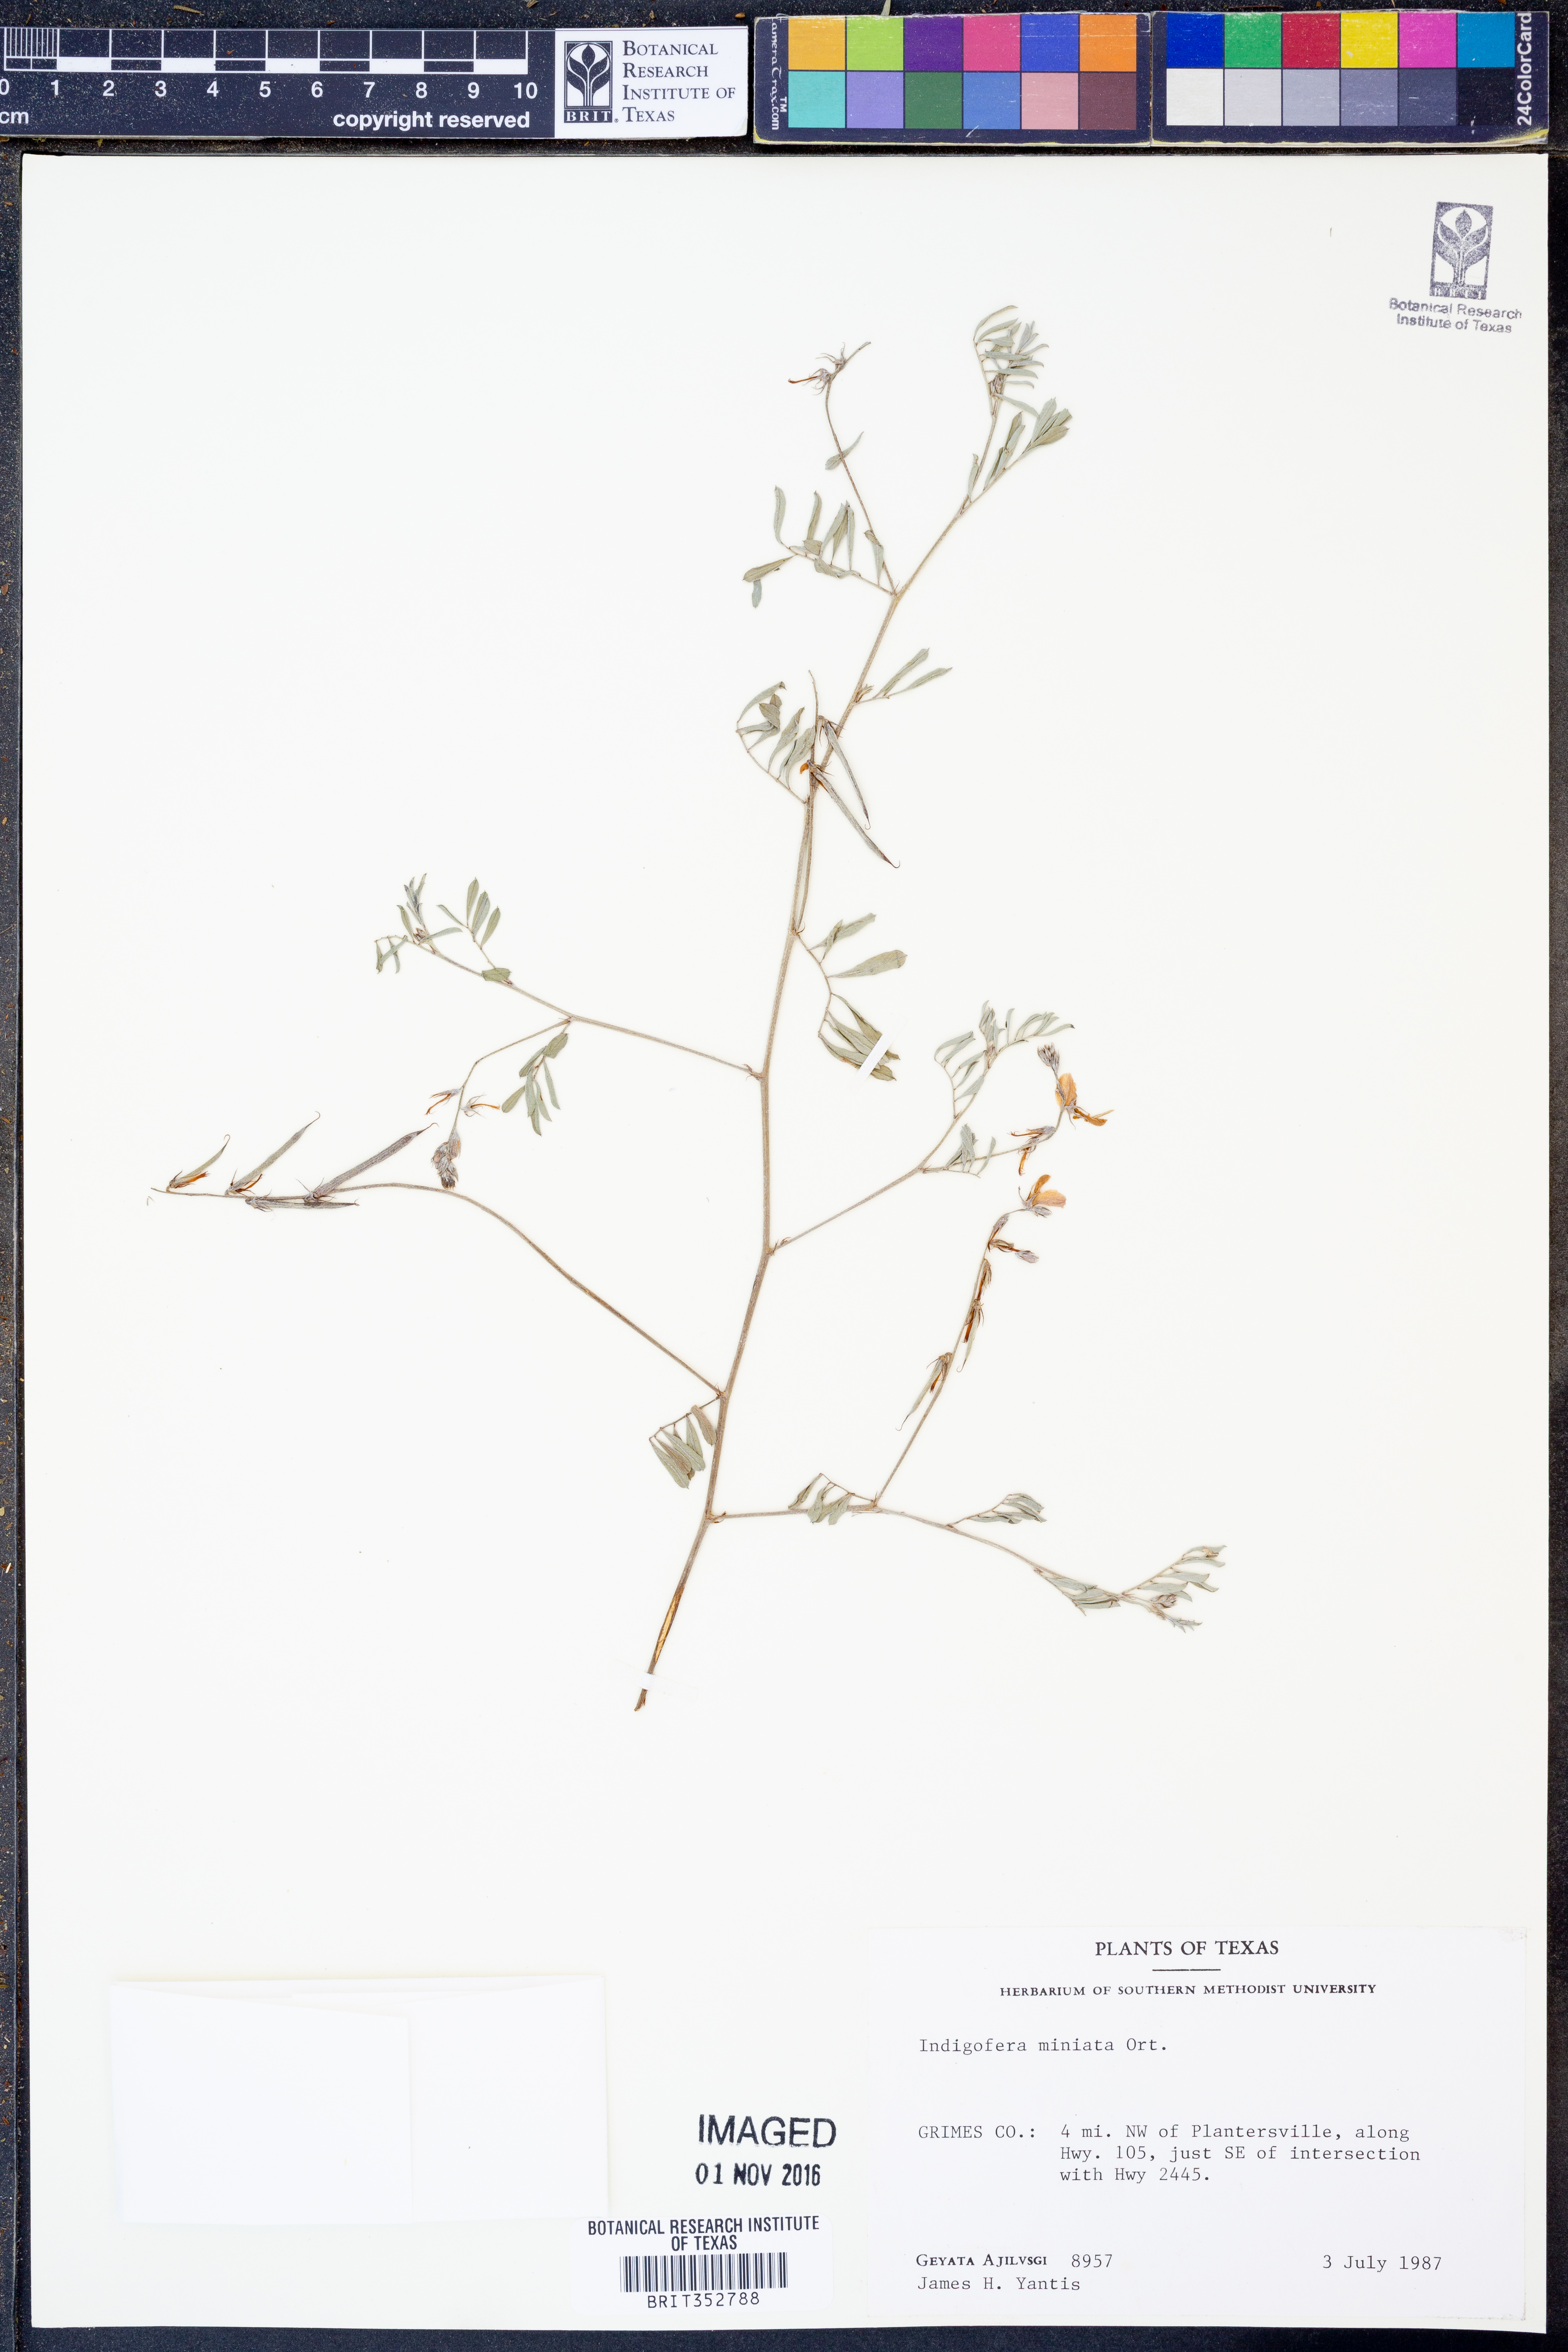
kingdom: Plantae
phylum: Tracheophyta
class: Magnoliopsida
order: Fabales
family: Fabaceae
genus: Indigofera
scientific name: Indigofera miniata
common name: Coast indigo
